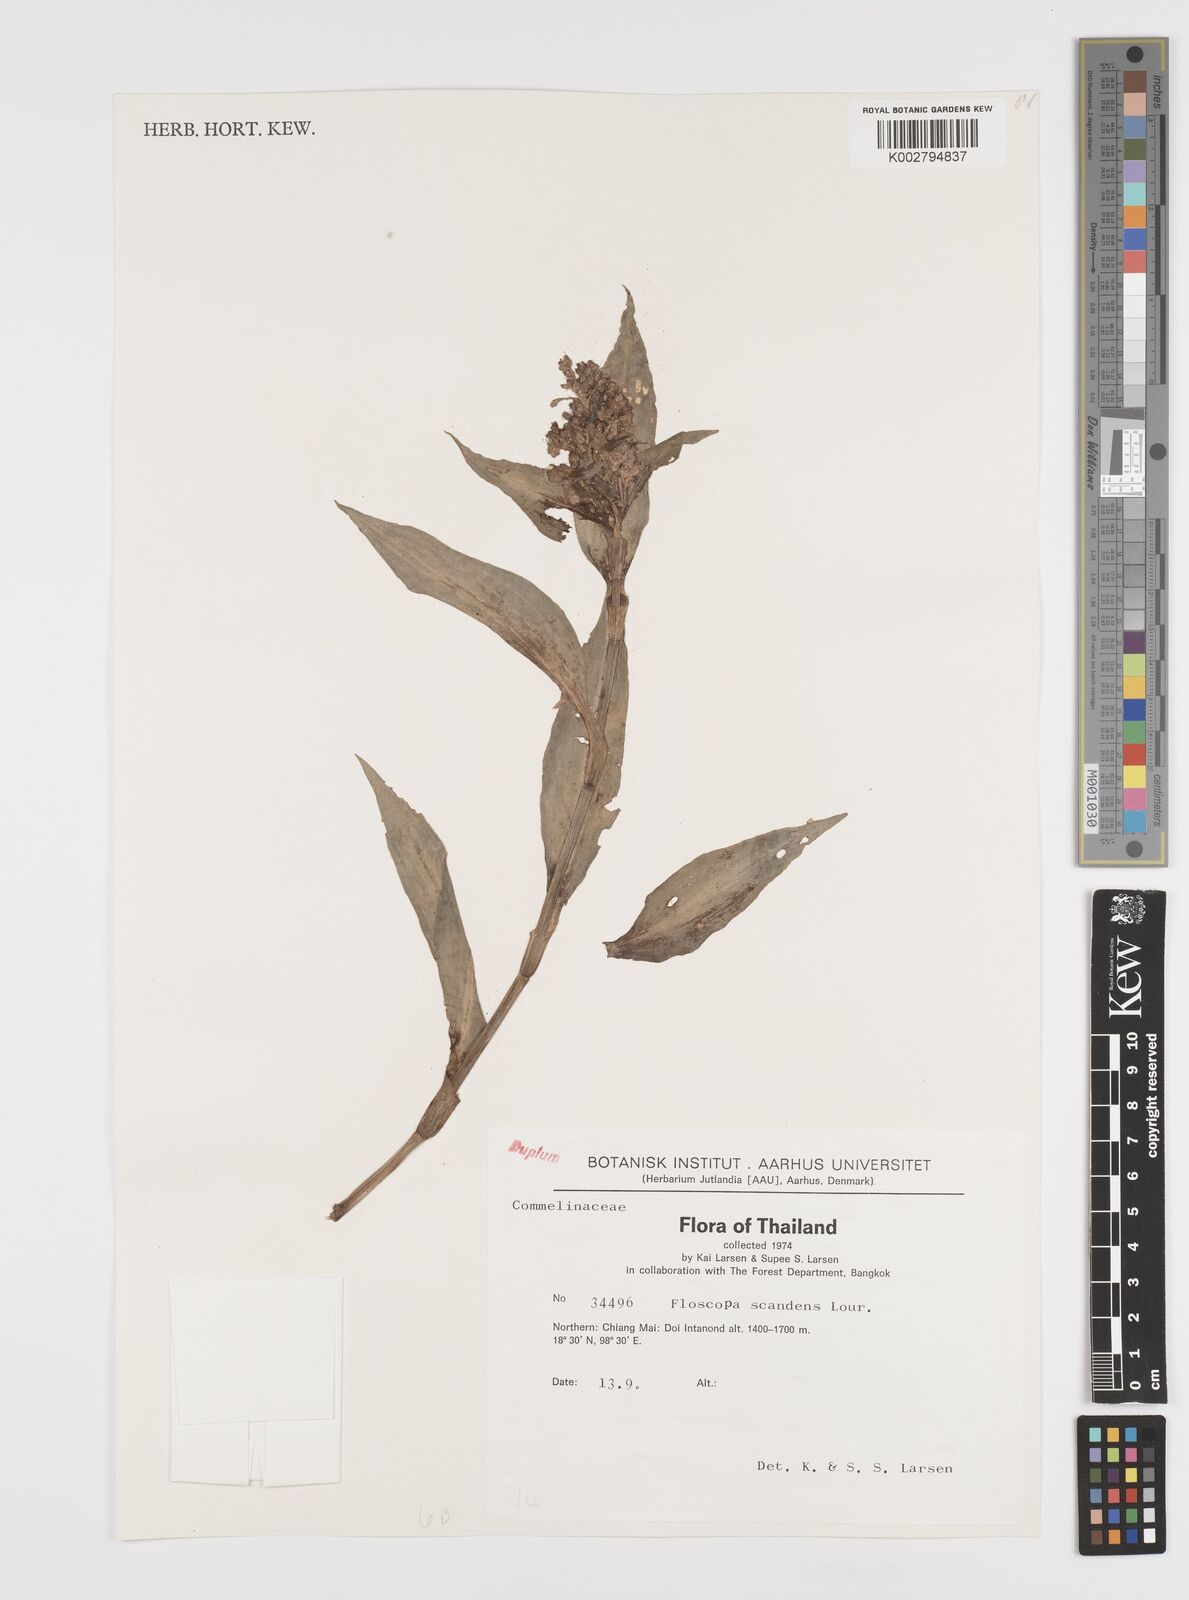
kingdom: Plantae
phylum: Tracheophyta
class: Liliopsida
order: Commelinales
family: Commelinaceae
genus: Floscopa
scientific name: Floscopa scandens
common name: Climbing flower cup
